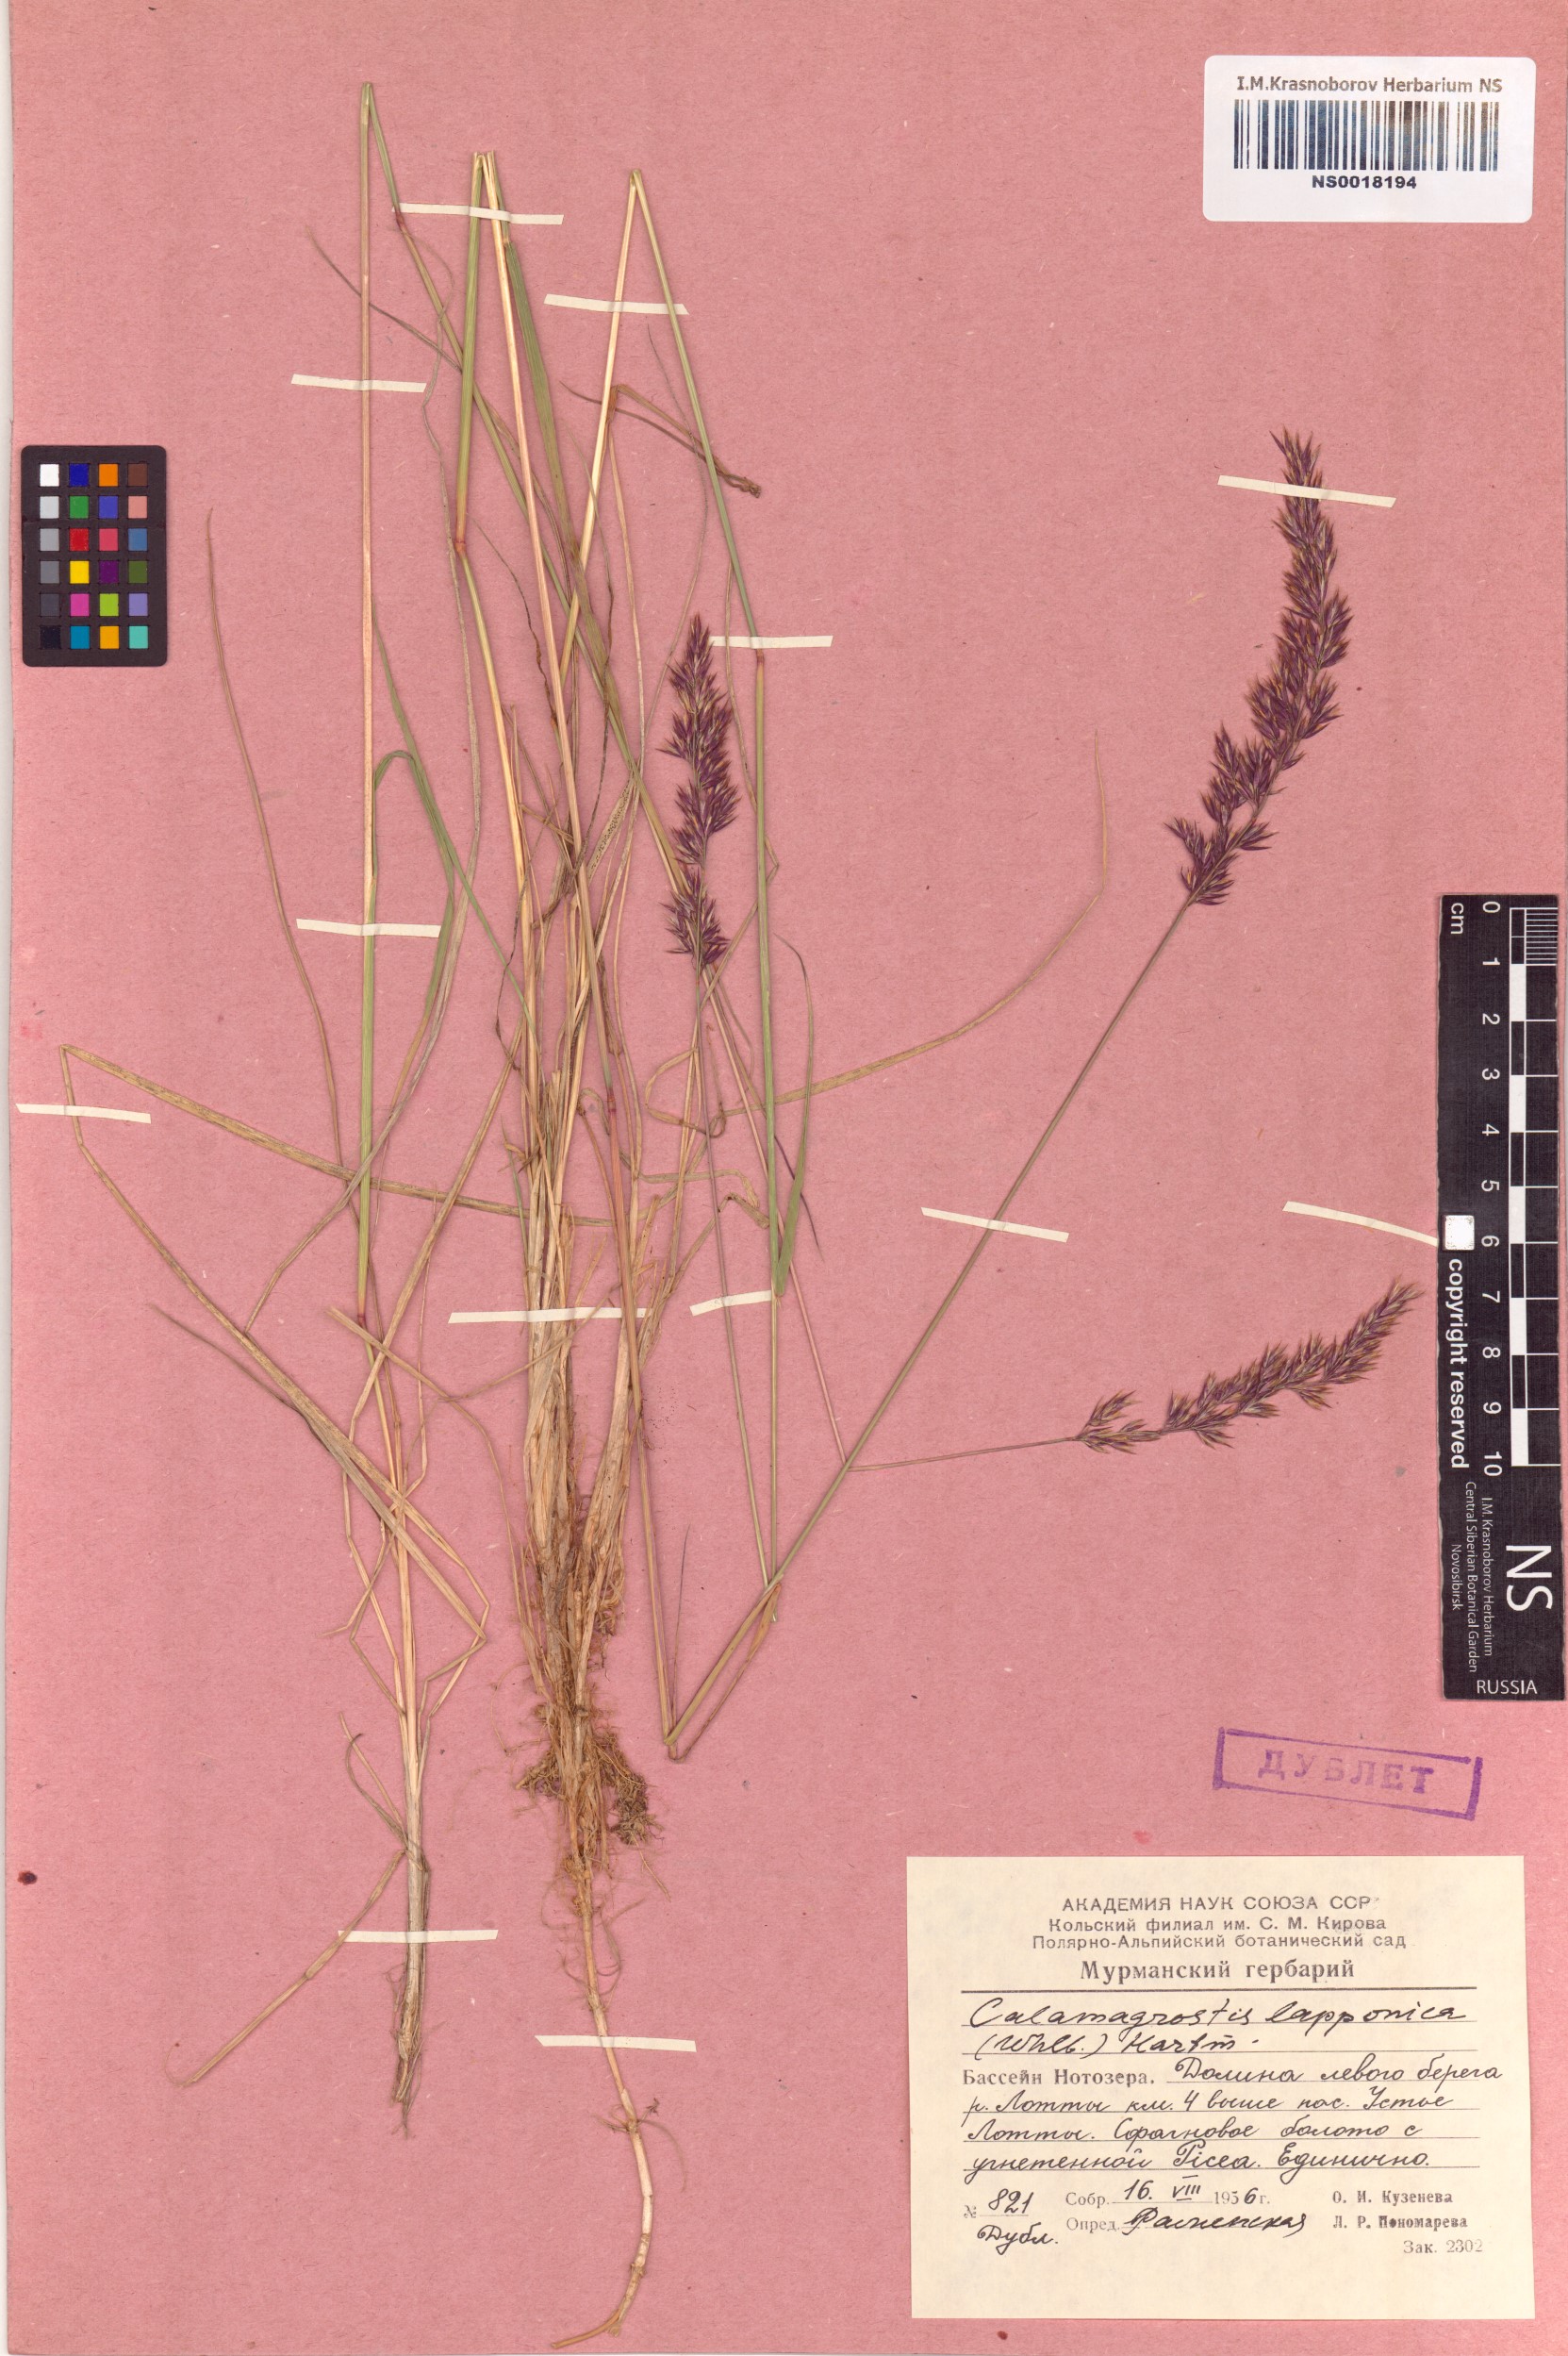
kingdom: Plantae
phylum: Tracheophyta
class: Liliopsida
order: Poales
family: Poaceae
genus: Calamagrostis
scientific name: Calamagrostis lapponica
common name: Lapland reedgrass
